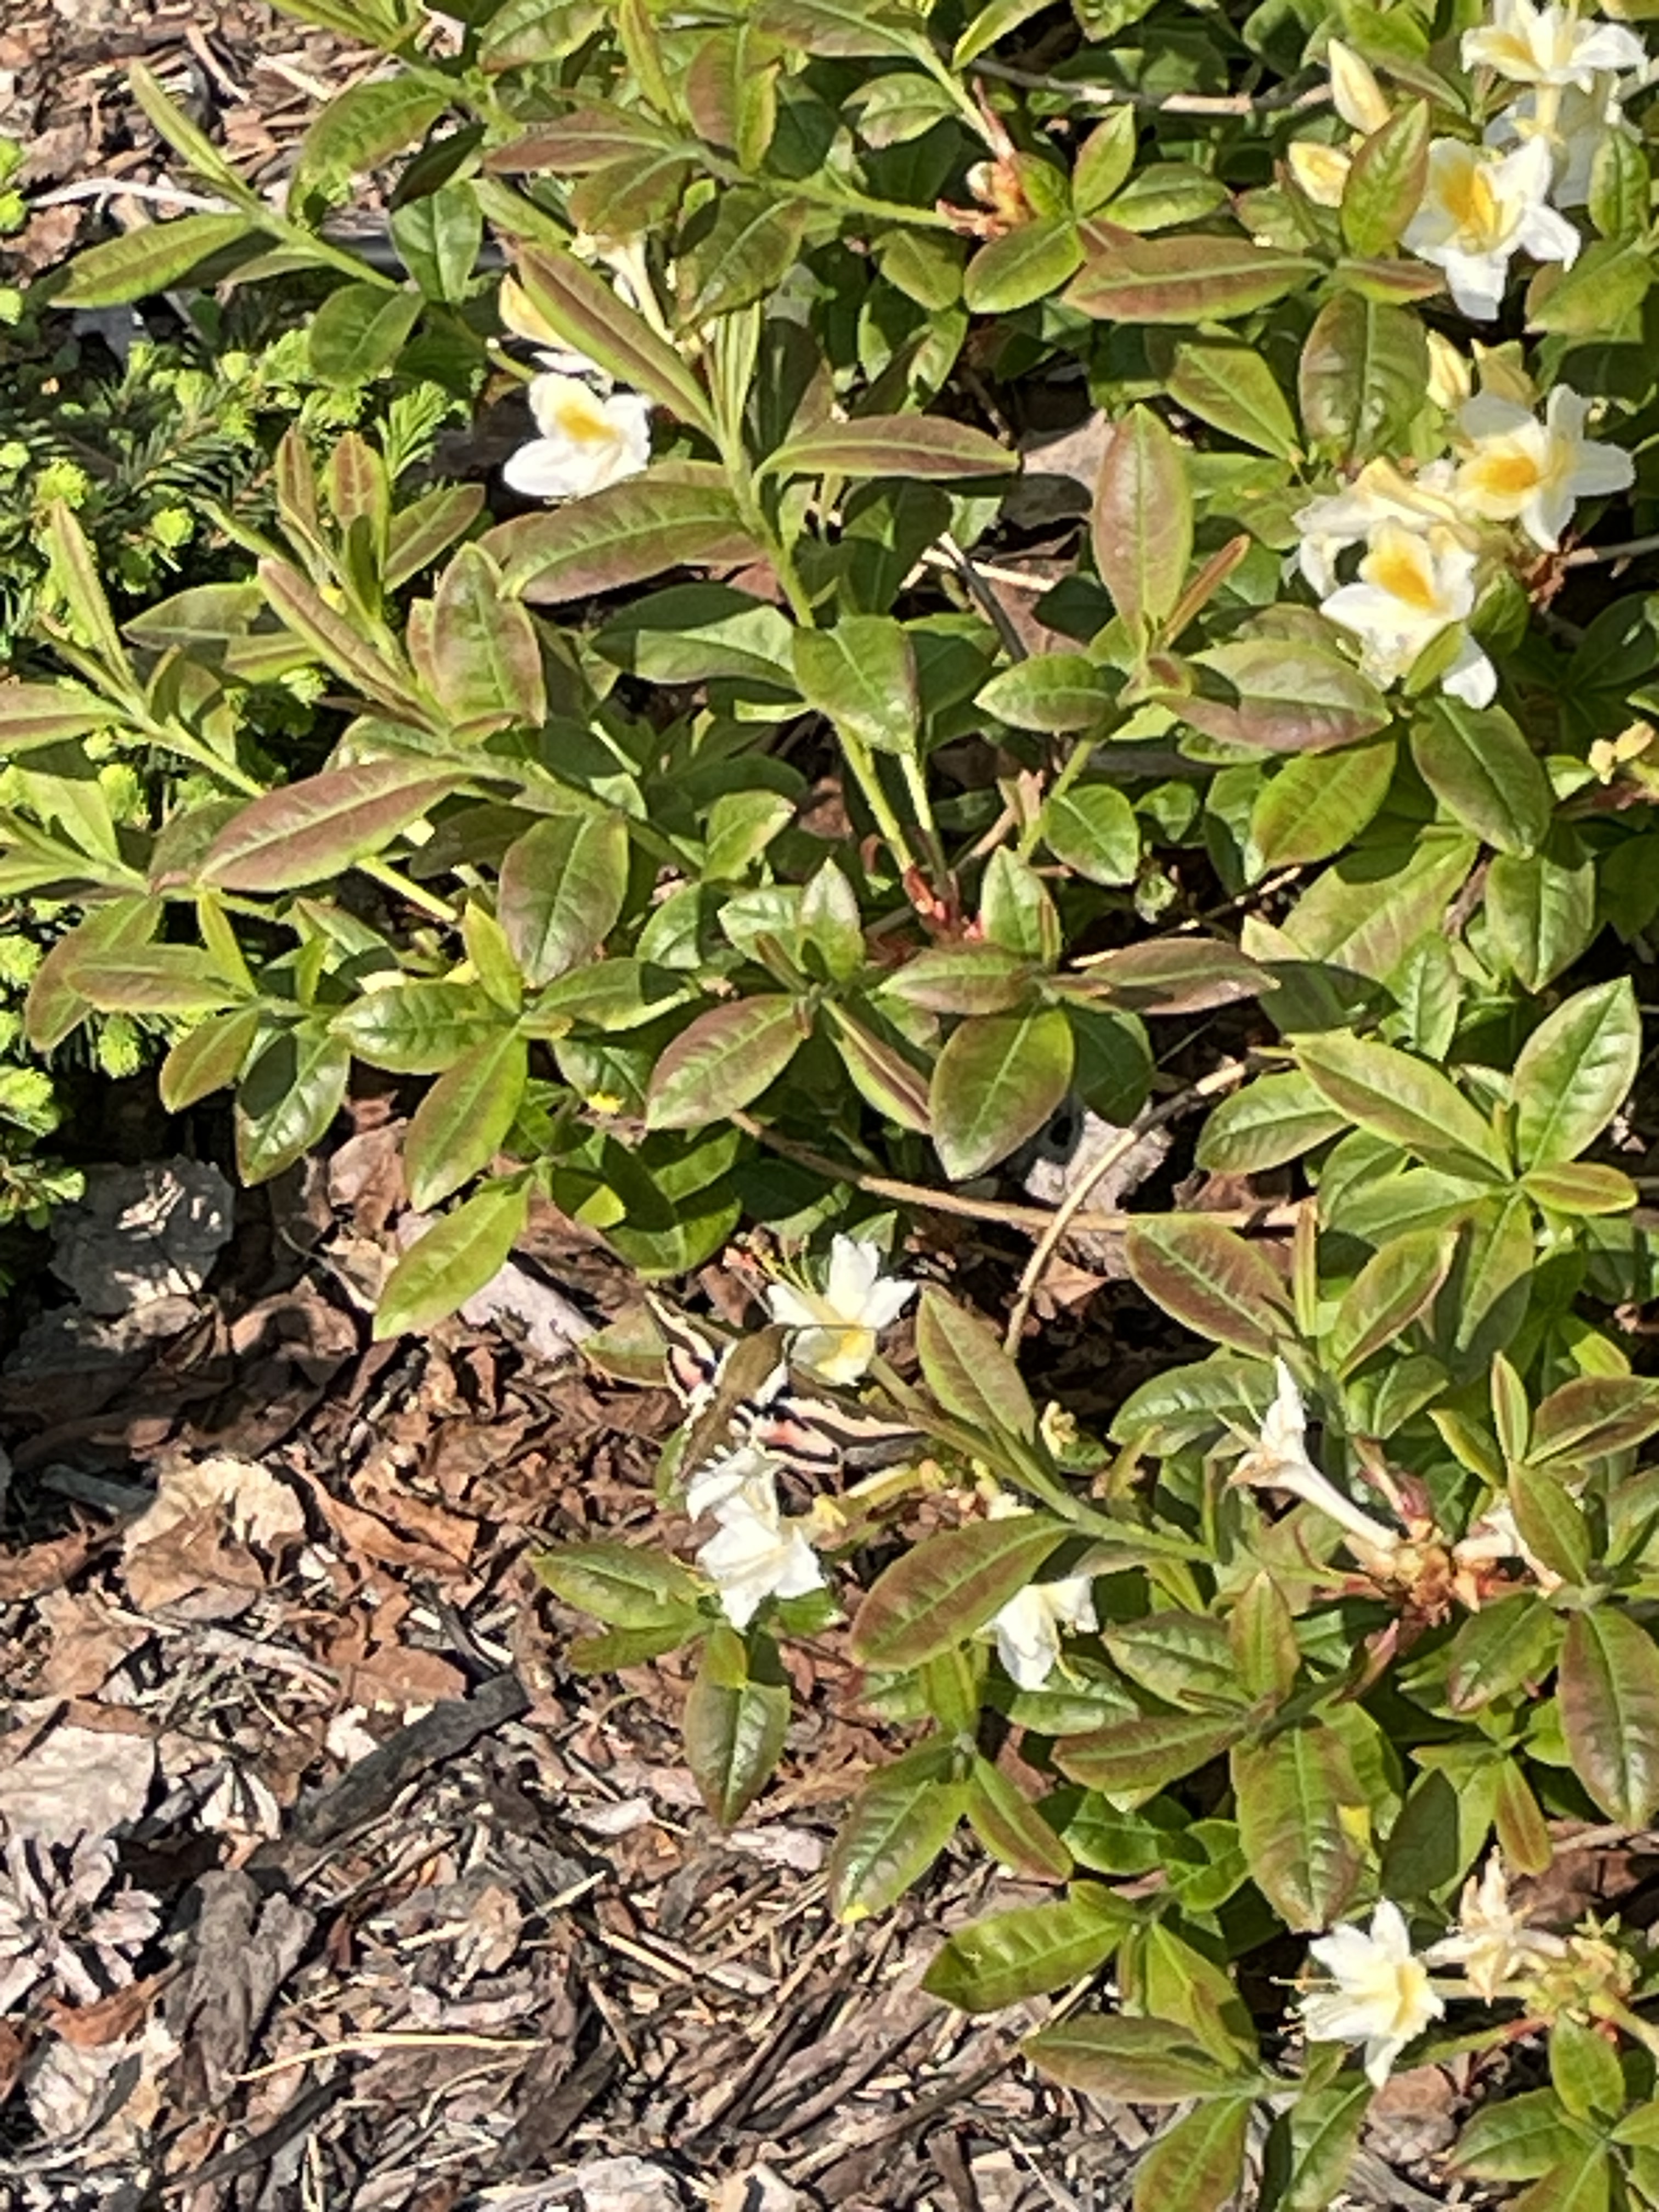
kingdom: Animalia
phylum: Arthropoda
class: Insecta
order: Lepidoptera
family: Sphingidae
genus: Hyles
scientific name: Hyles gallii
